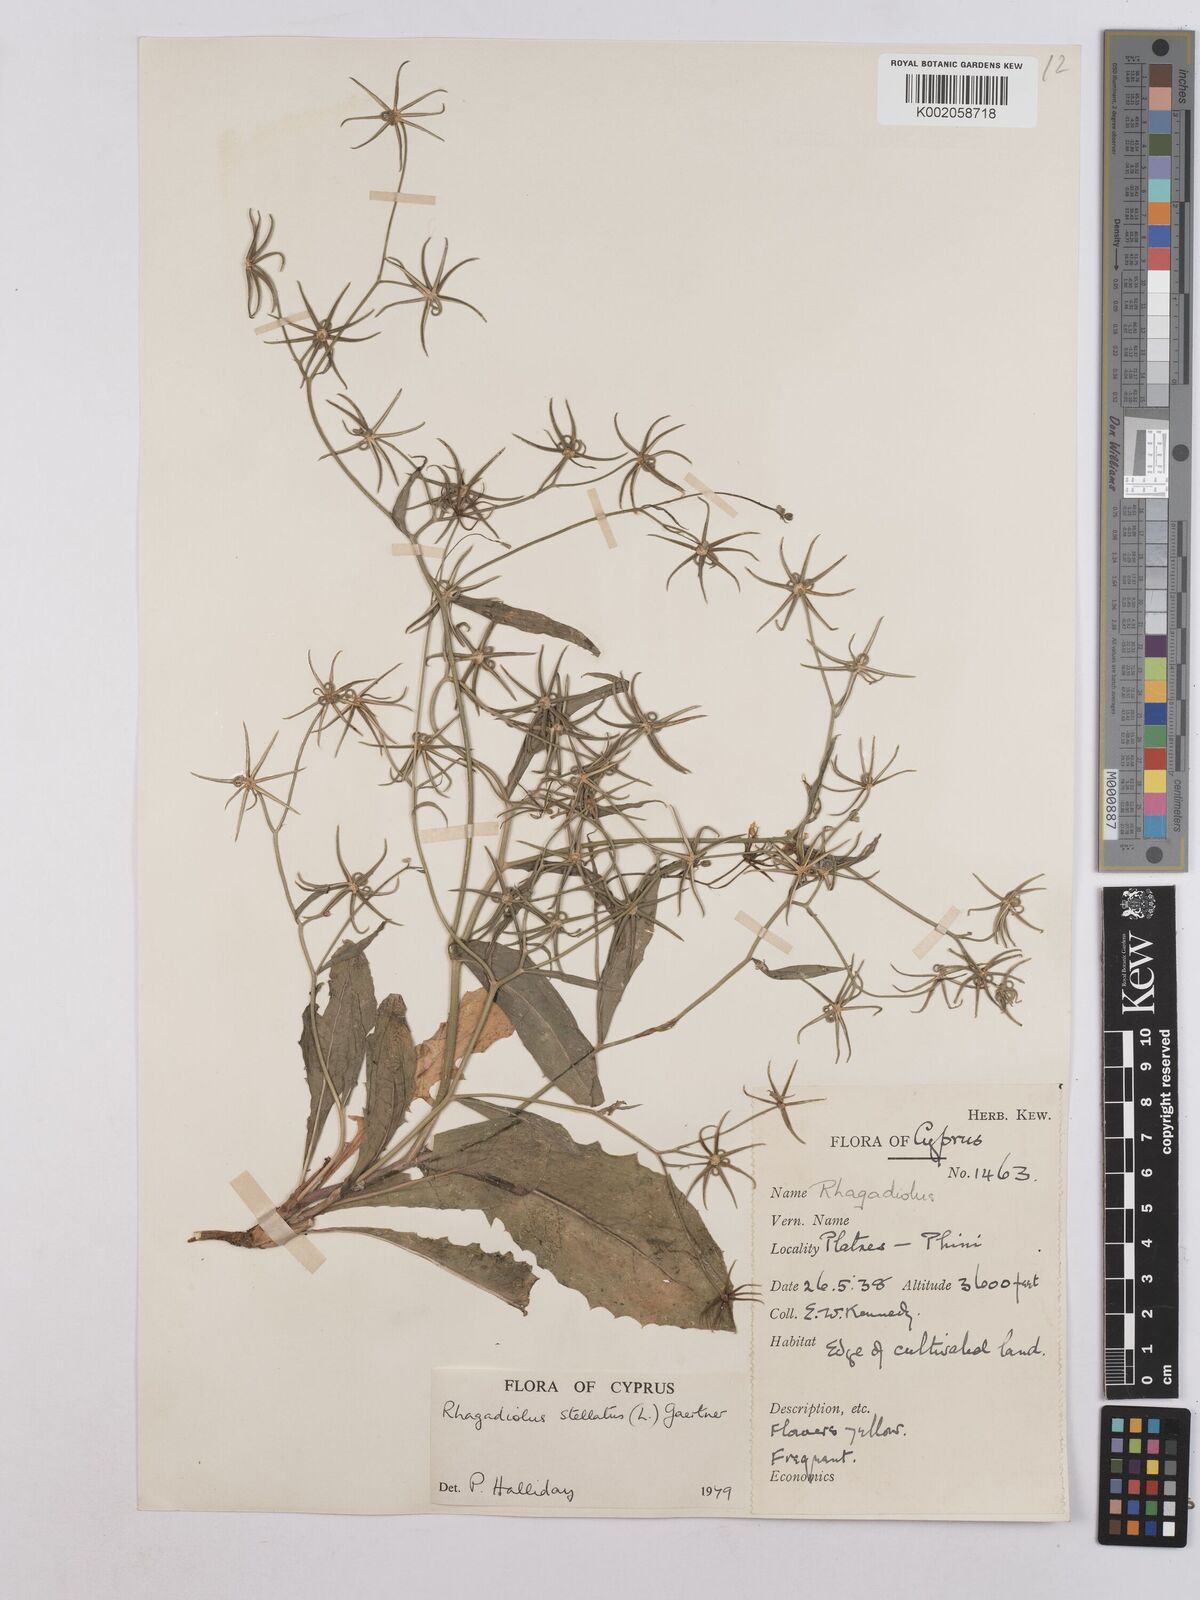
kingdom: Plantae
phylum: Tracheophyta
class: Magnoliopsida
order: Asterales
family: Asteraceae
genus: Rhagadiolus
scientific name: Rhagadiolus stellatus
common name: Star hawkbit
